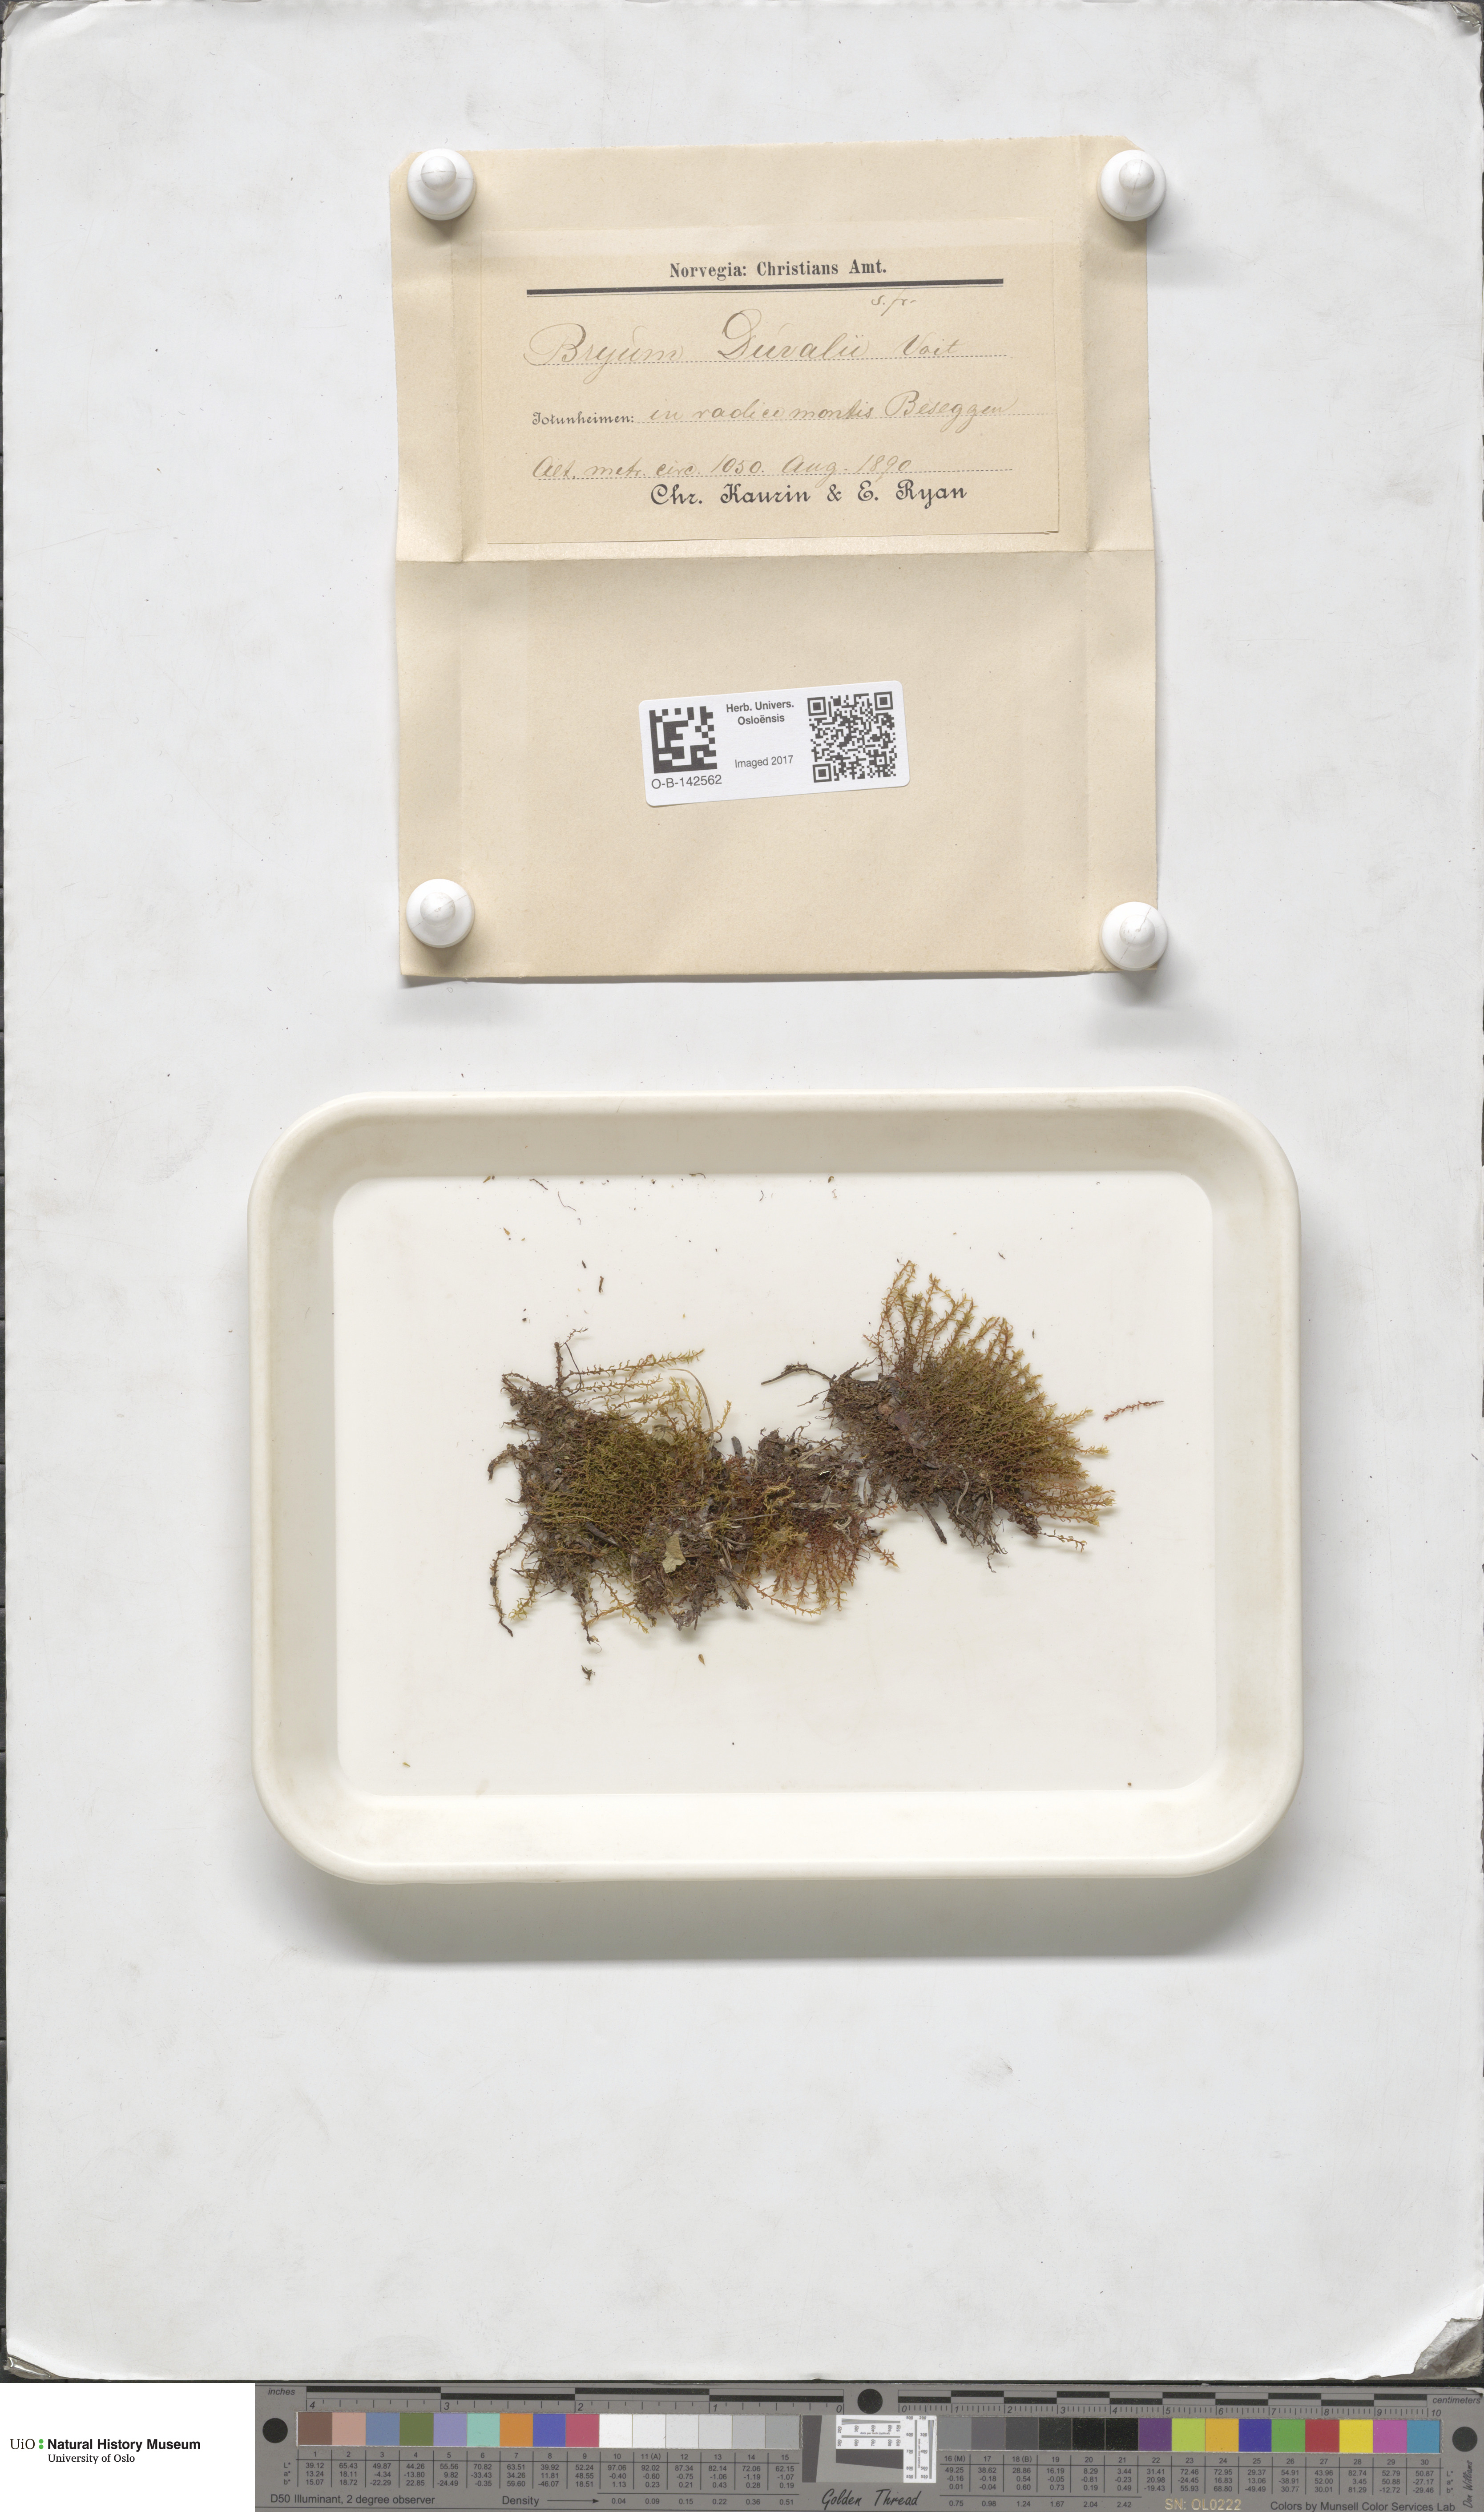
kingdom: Plantae
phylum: Bryophyta
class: Bryopsida
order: Bryales
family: Bryaceae
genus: Ptychostomum
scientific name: Ptychostomum weigelii
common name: Weigel's bryum moss
